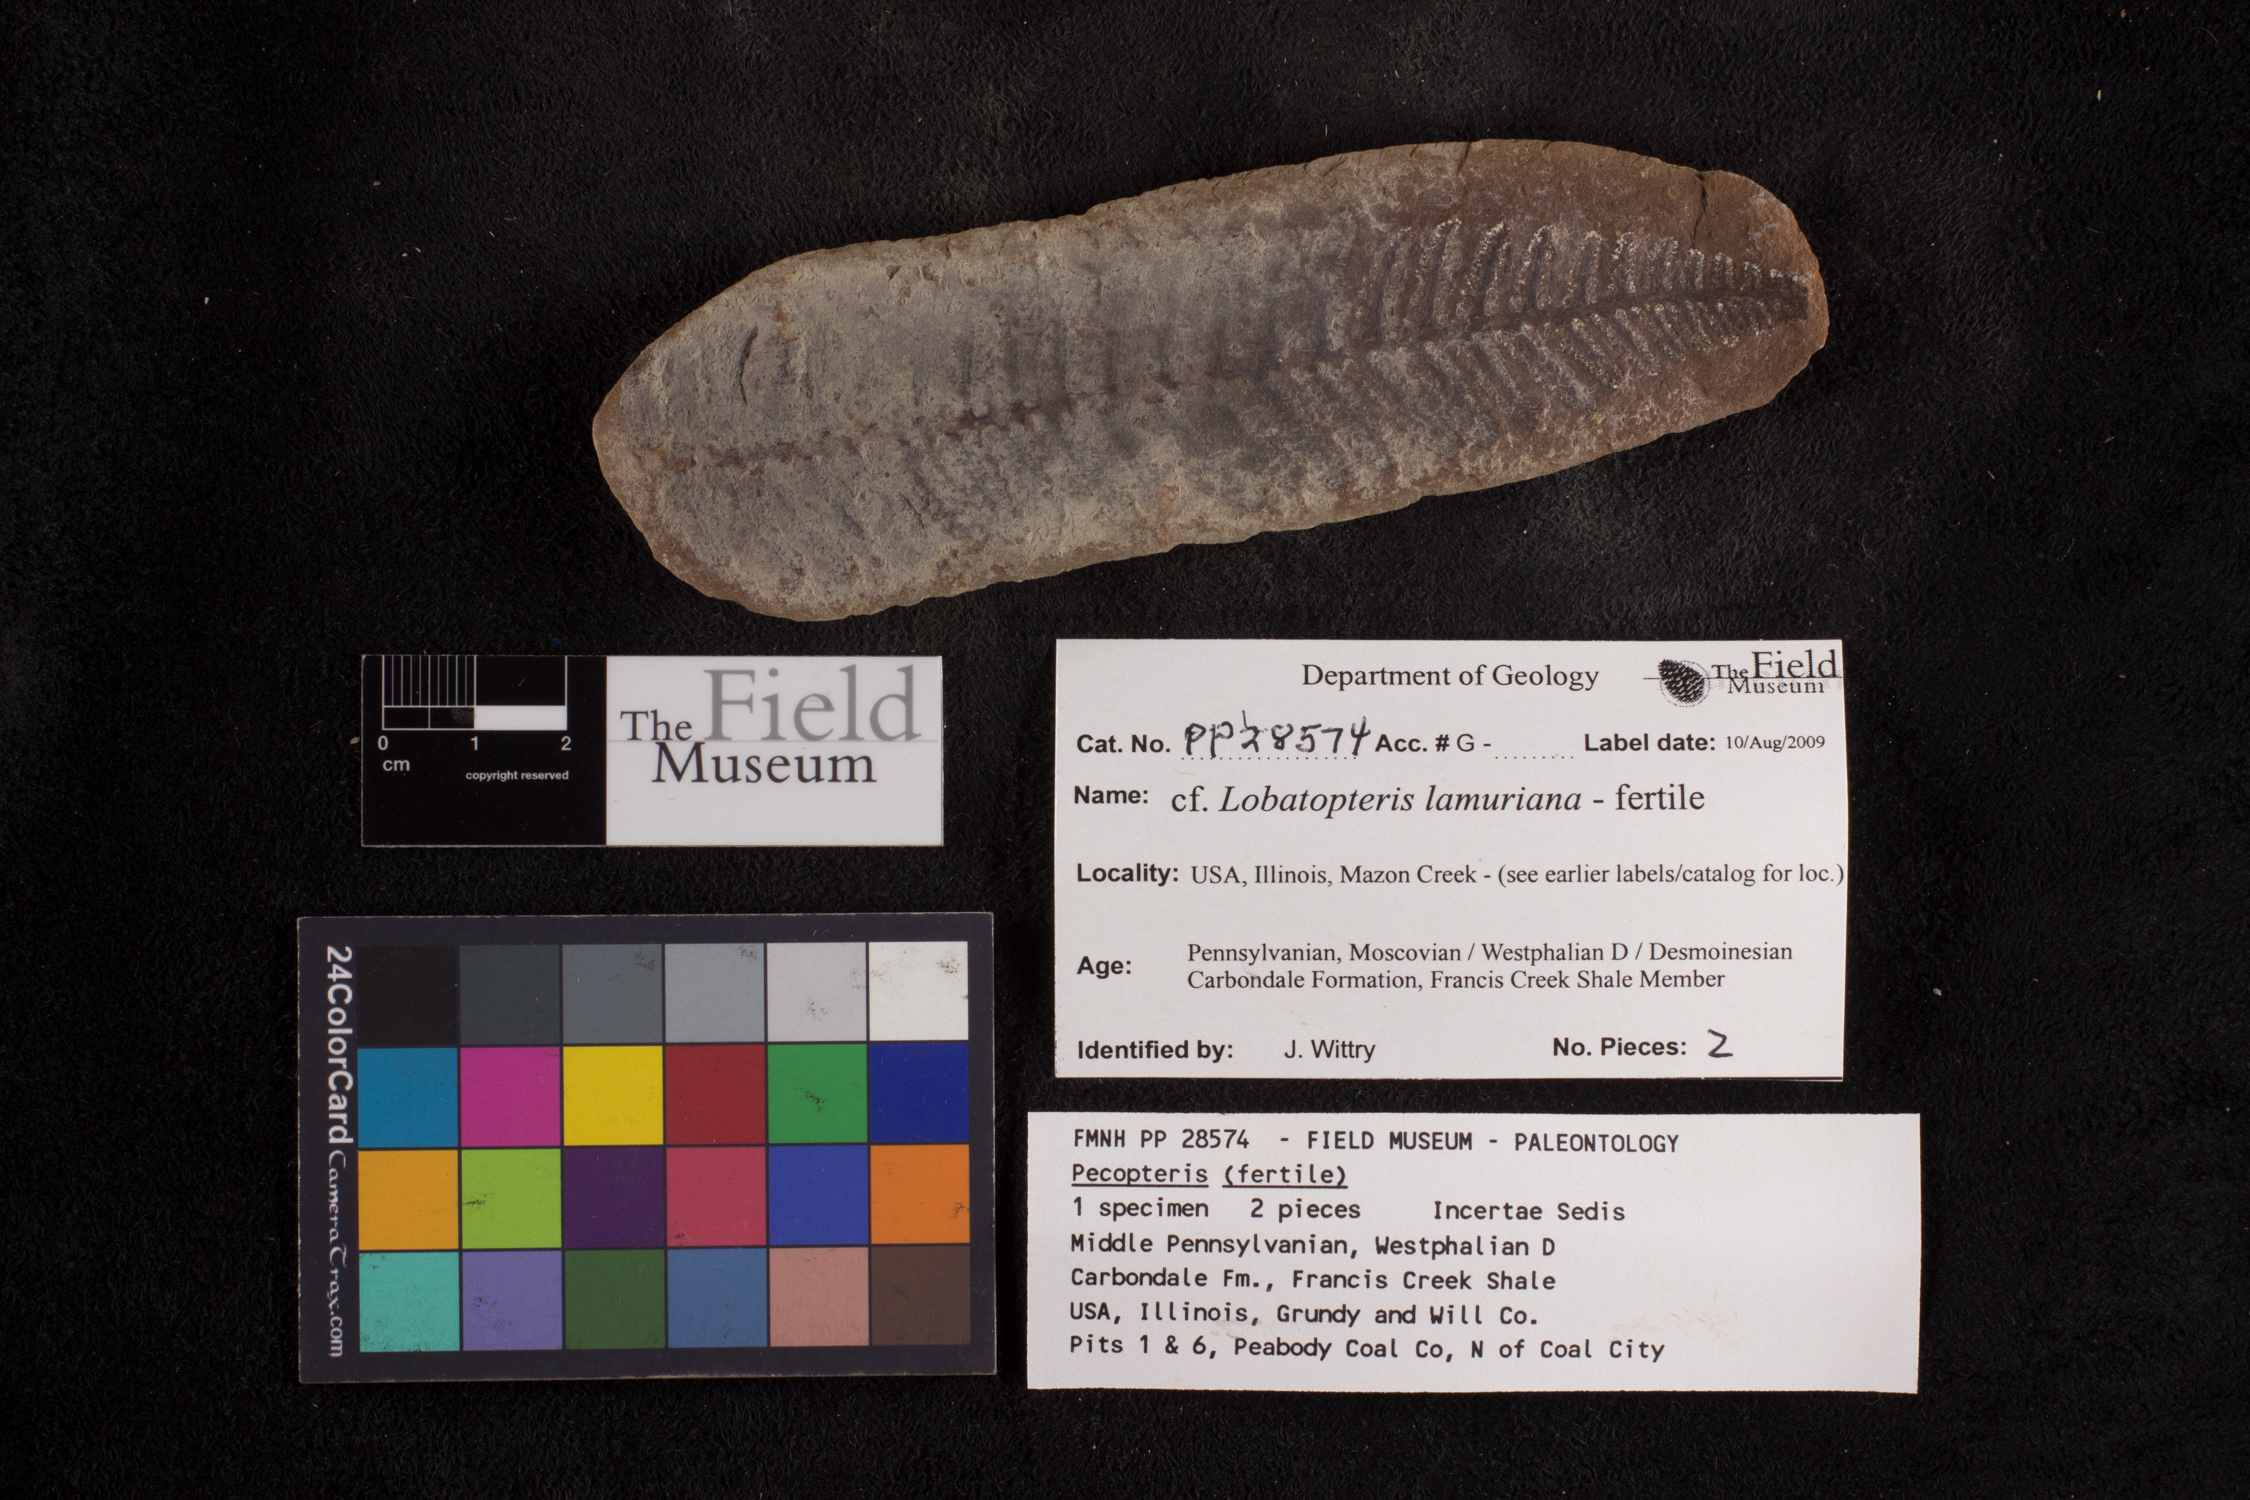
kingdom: Plantae
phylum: Tracheophyta
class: Polypodiopsida
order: Marattiales
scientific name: Marattiales
